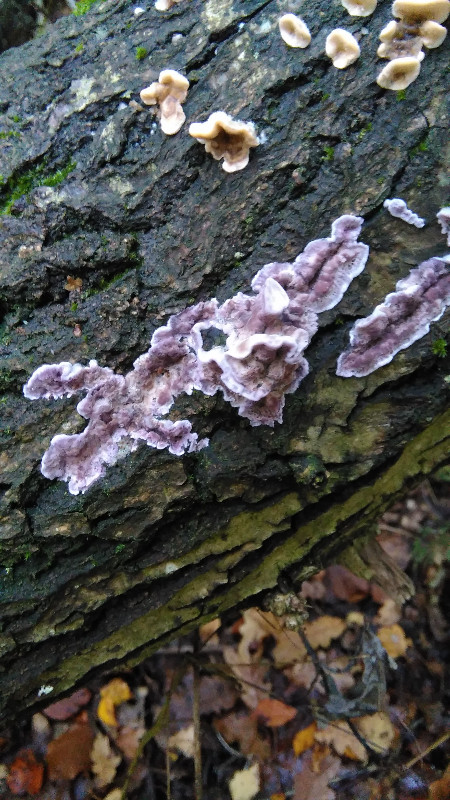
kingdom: Fungi
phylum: Basidiomycota
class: Agaricomycetes
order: Agaricales
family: Cyphellaceae
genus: Chondrostereum
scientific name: Chondrostereum purpureum
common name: purpurlædersvamp
